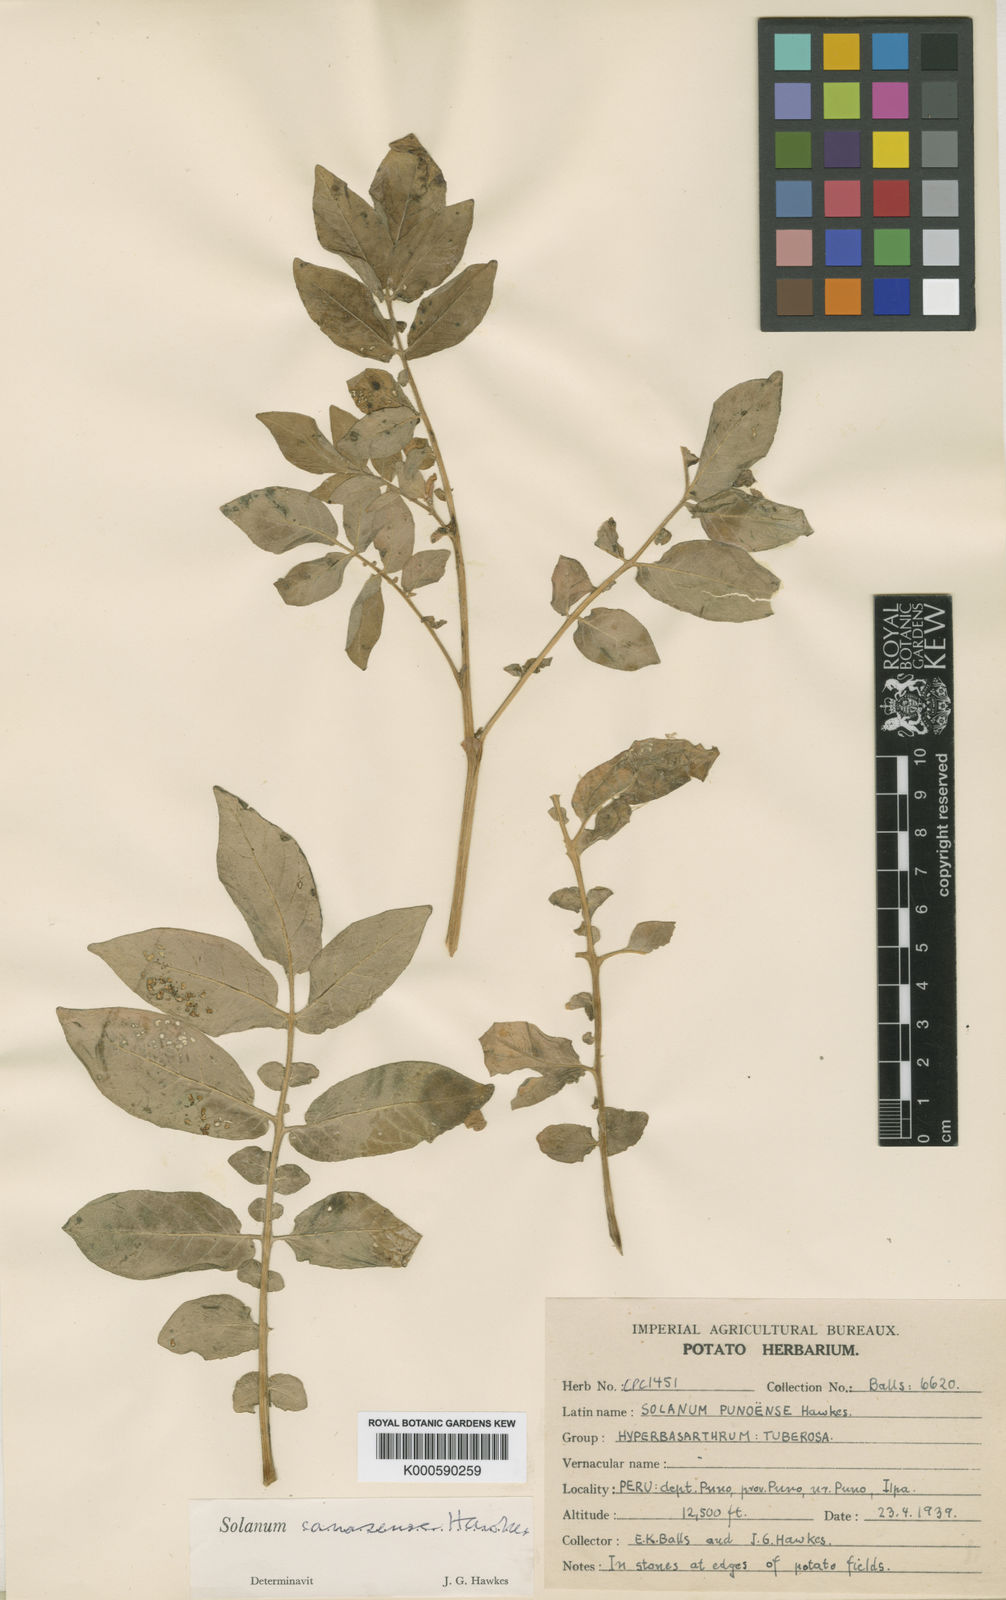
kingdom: Plantae
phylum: Tracheophyta
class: Magnoliopsida
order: Solanales
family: Solanaceae
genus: Solanum
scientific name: Solanum candolleanum
